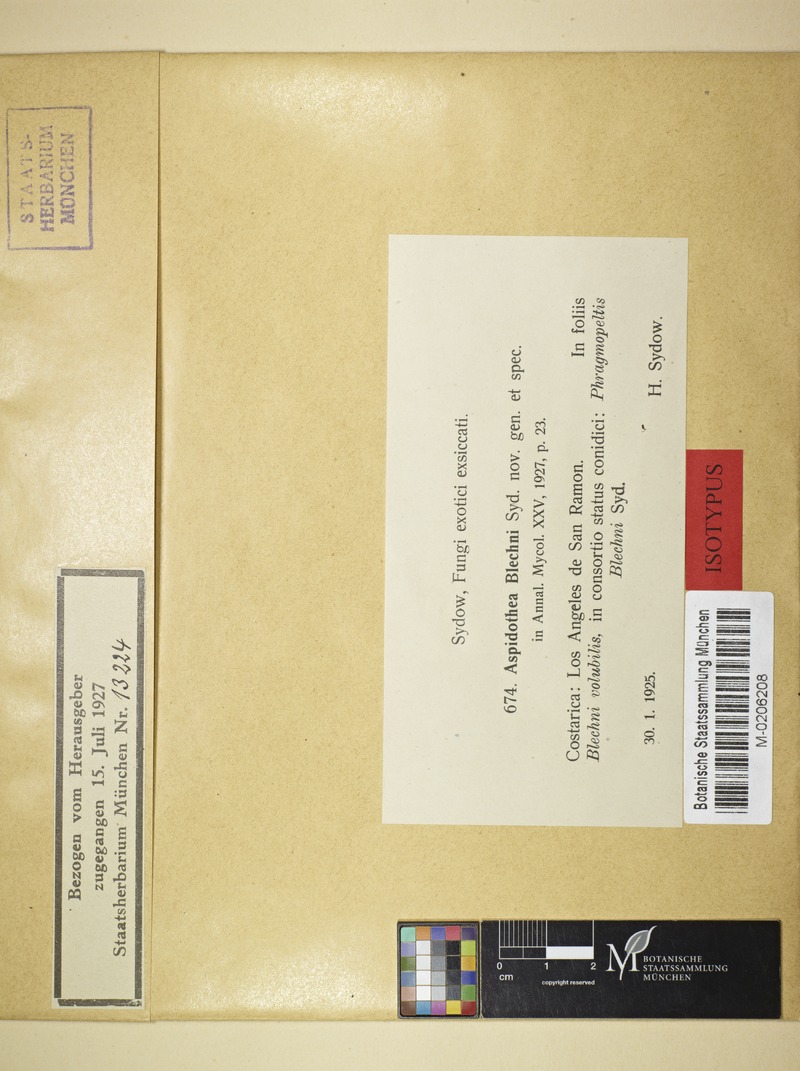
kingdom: Fungi
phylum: Ascomycota
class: Dothideomycetes
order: Asterinales
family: Parmulariaceae
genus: Inocyclus
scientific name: Inocyclus blechni
